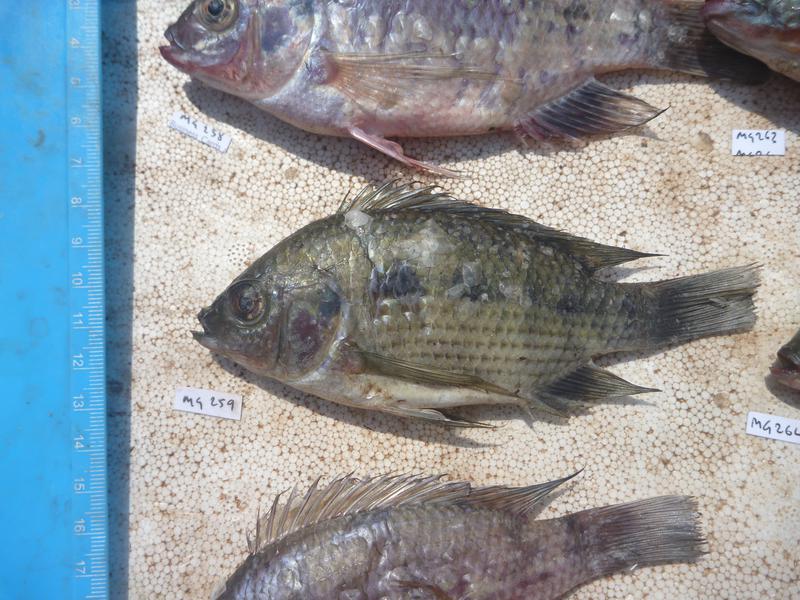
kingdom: Animalia
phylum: Chordata
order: Perciformes
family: Cichlidae
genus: Oreochromis
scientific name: Oreochromis upembae
